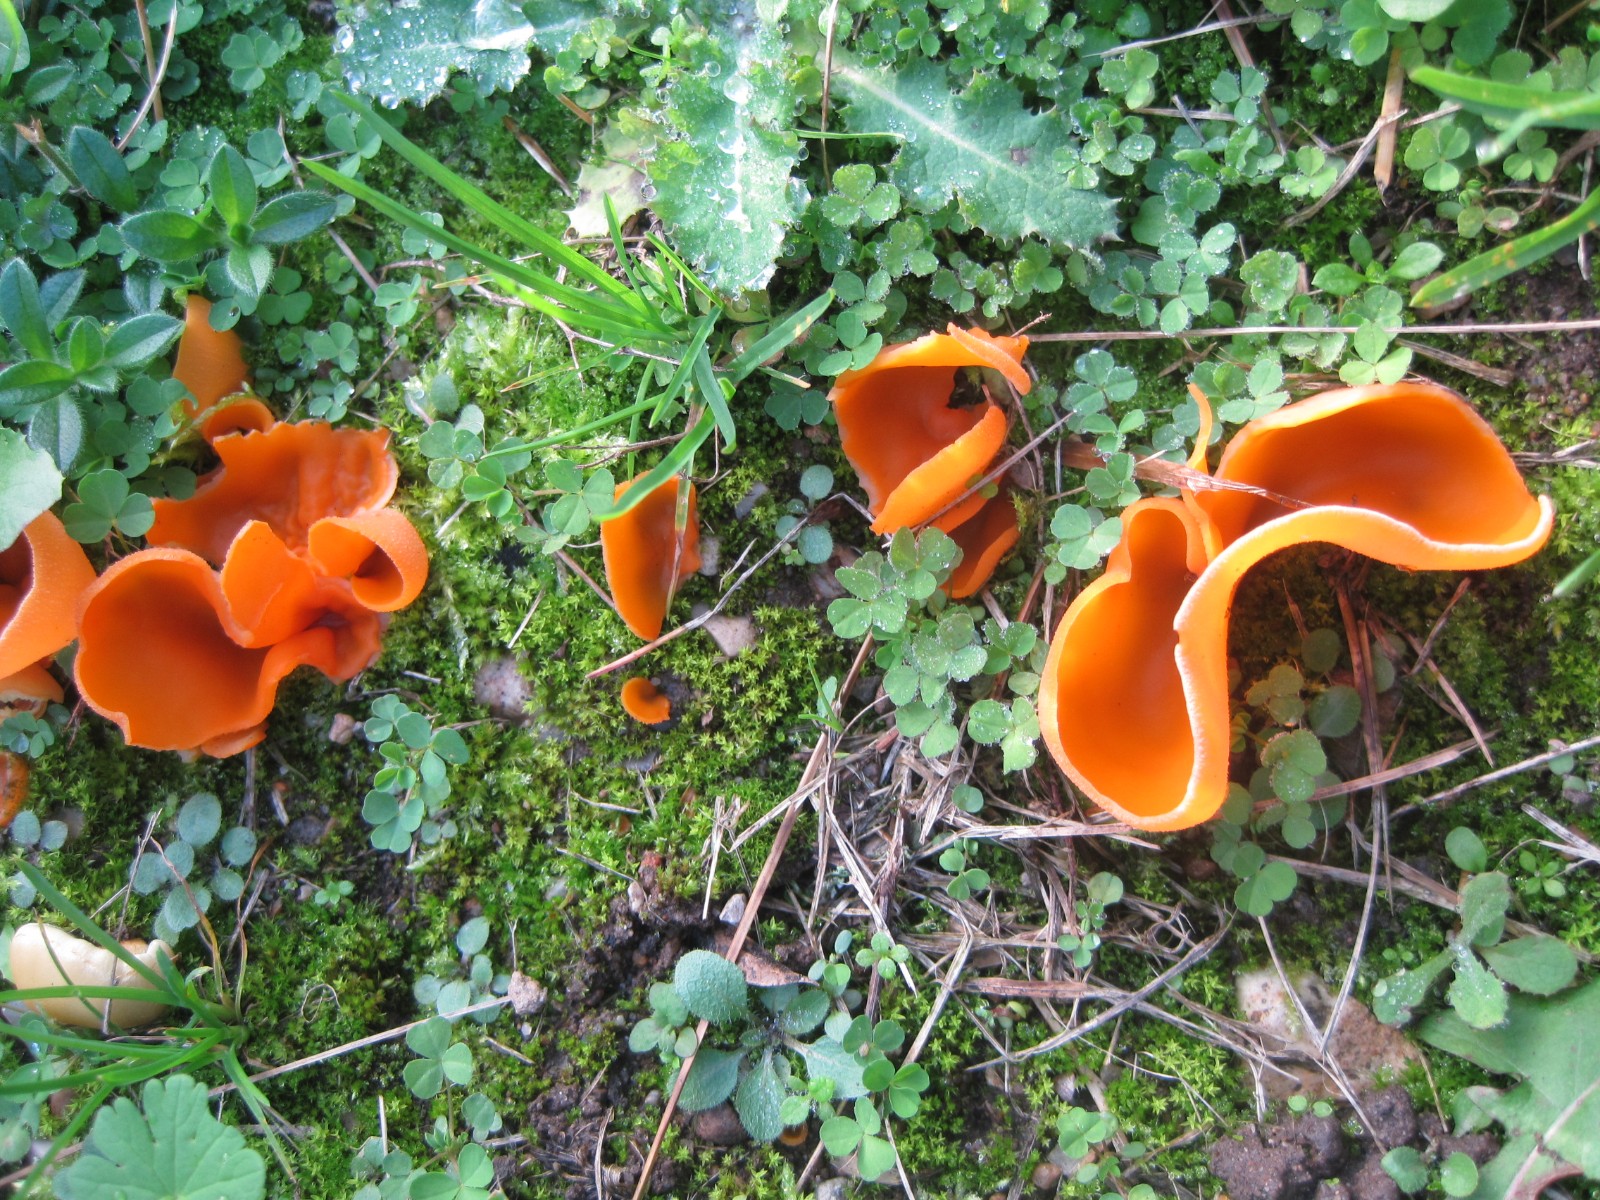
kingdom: Fungi
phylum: Ascomycota
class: Pezizomycetes
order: Pezizales
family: Pyronemataceae
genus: Aleuria
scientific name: Aleuria aurantia
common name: almindelig orangebæger
